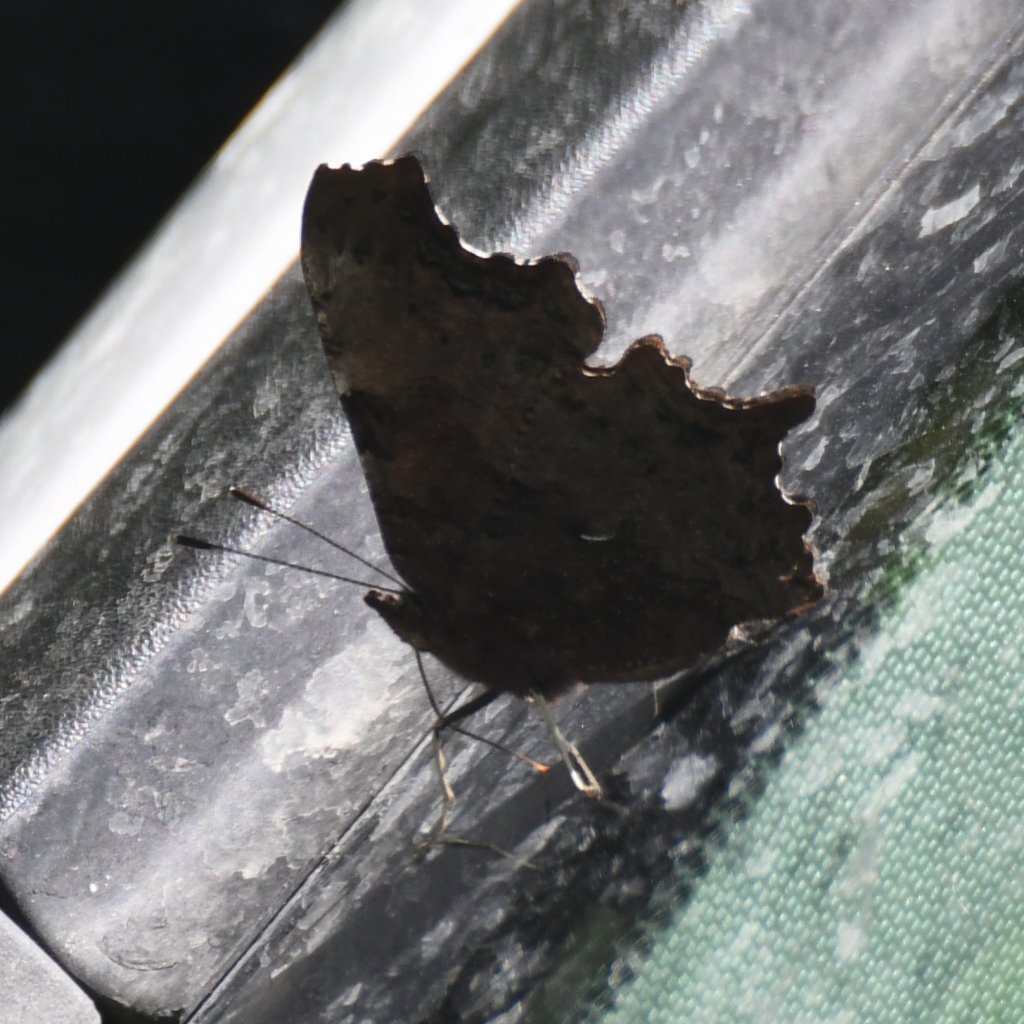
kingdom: Animalia
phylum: Arthropoda
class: Insecta
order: Lepidoptera
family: Nymphalidae
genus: Polygonia
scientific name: Polygonia faunus
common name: Green Comma
